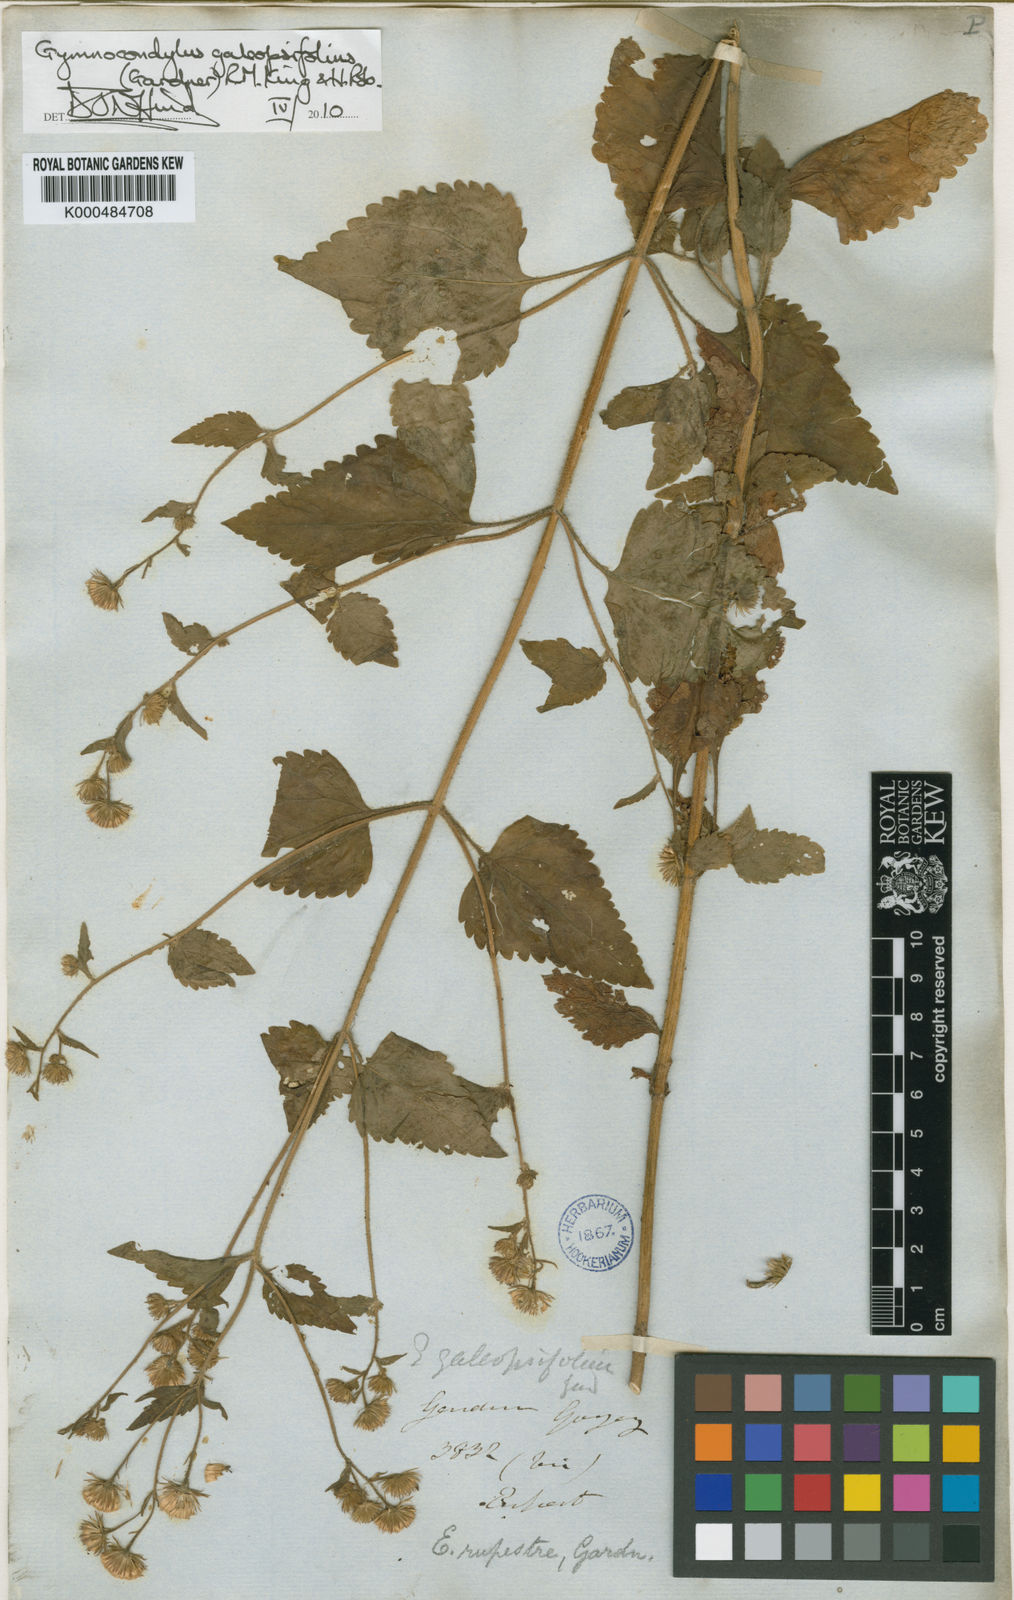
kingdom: Plantae
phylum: Tracheophyta
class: Magnoliopsida
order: Asterales
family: Asteraceae
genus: Gymnocondylus
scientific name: Gymnocondylus galeopsifolius
